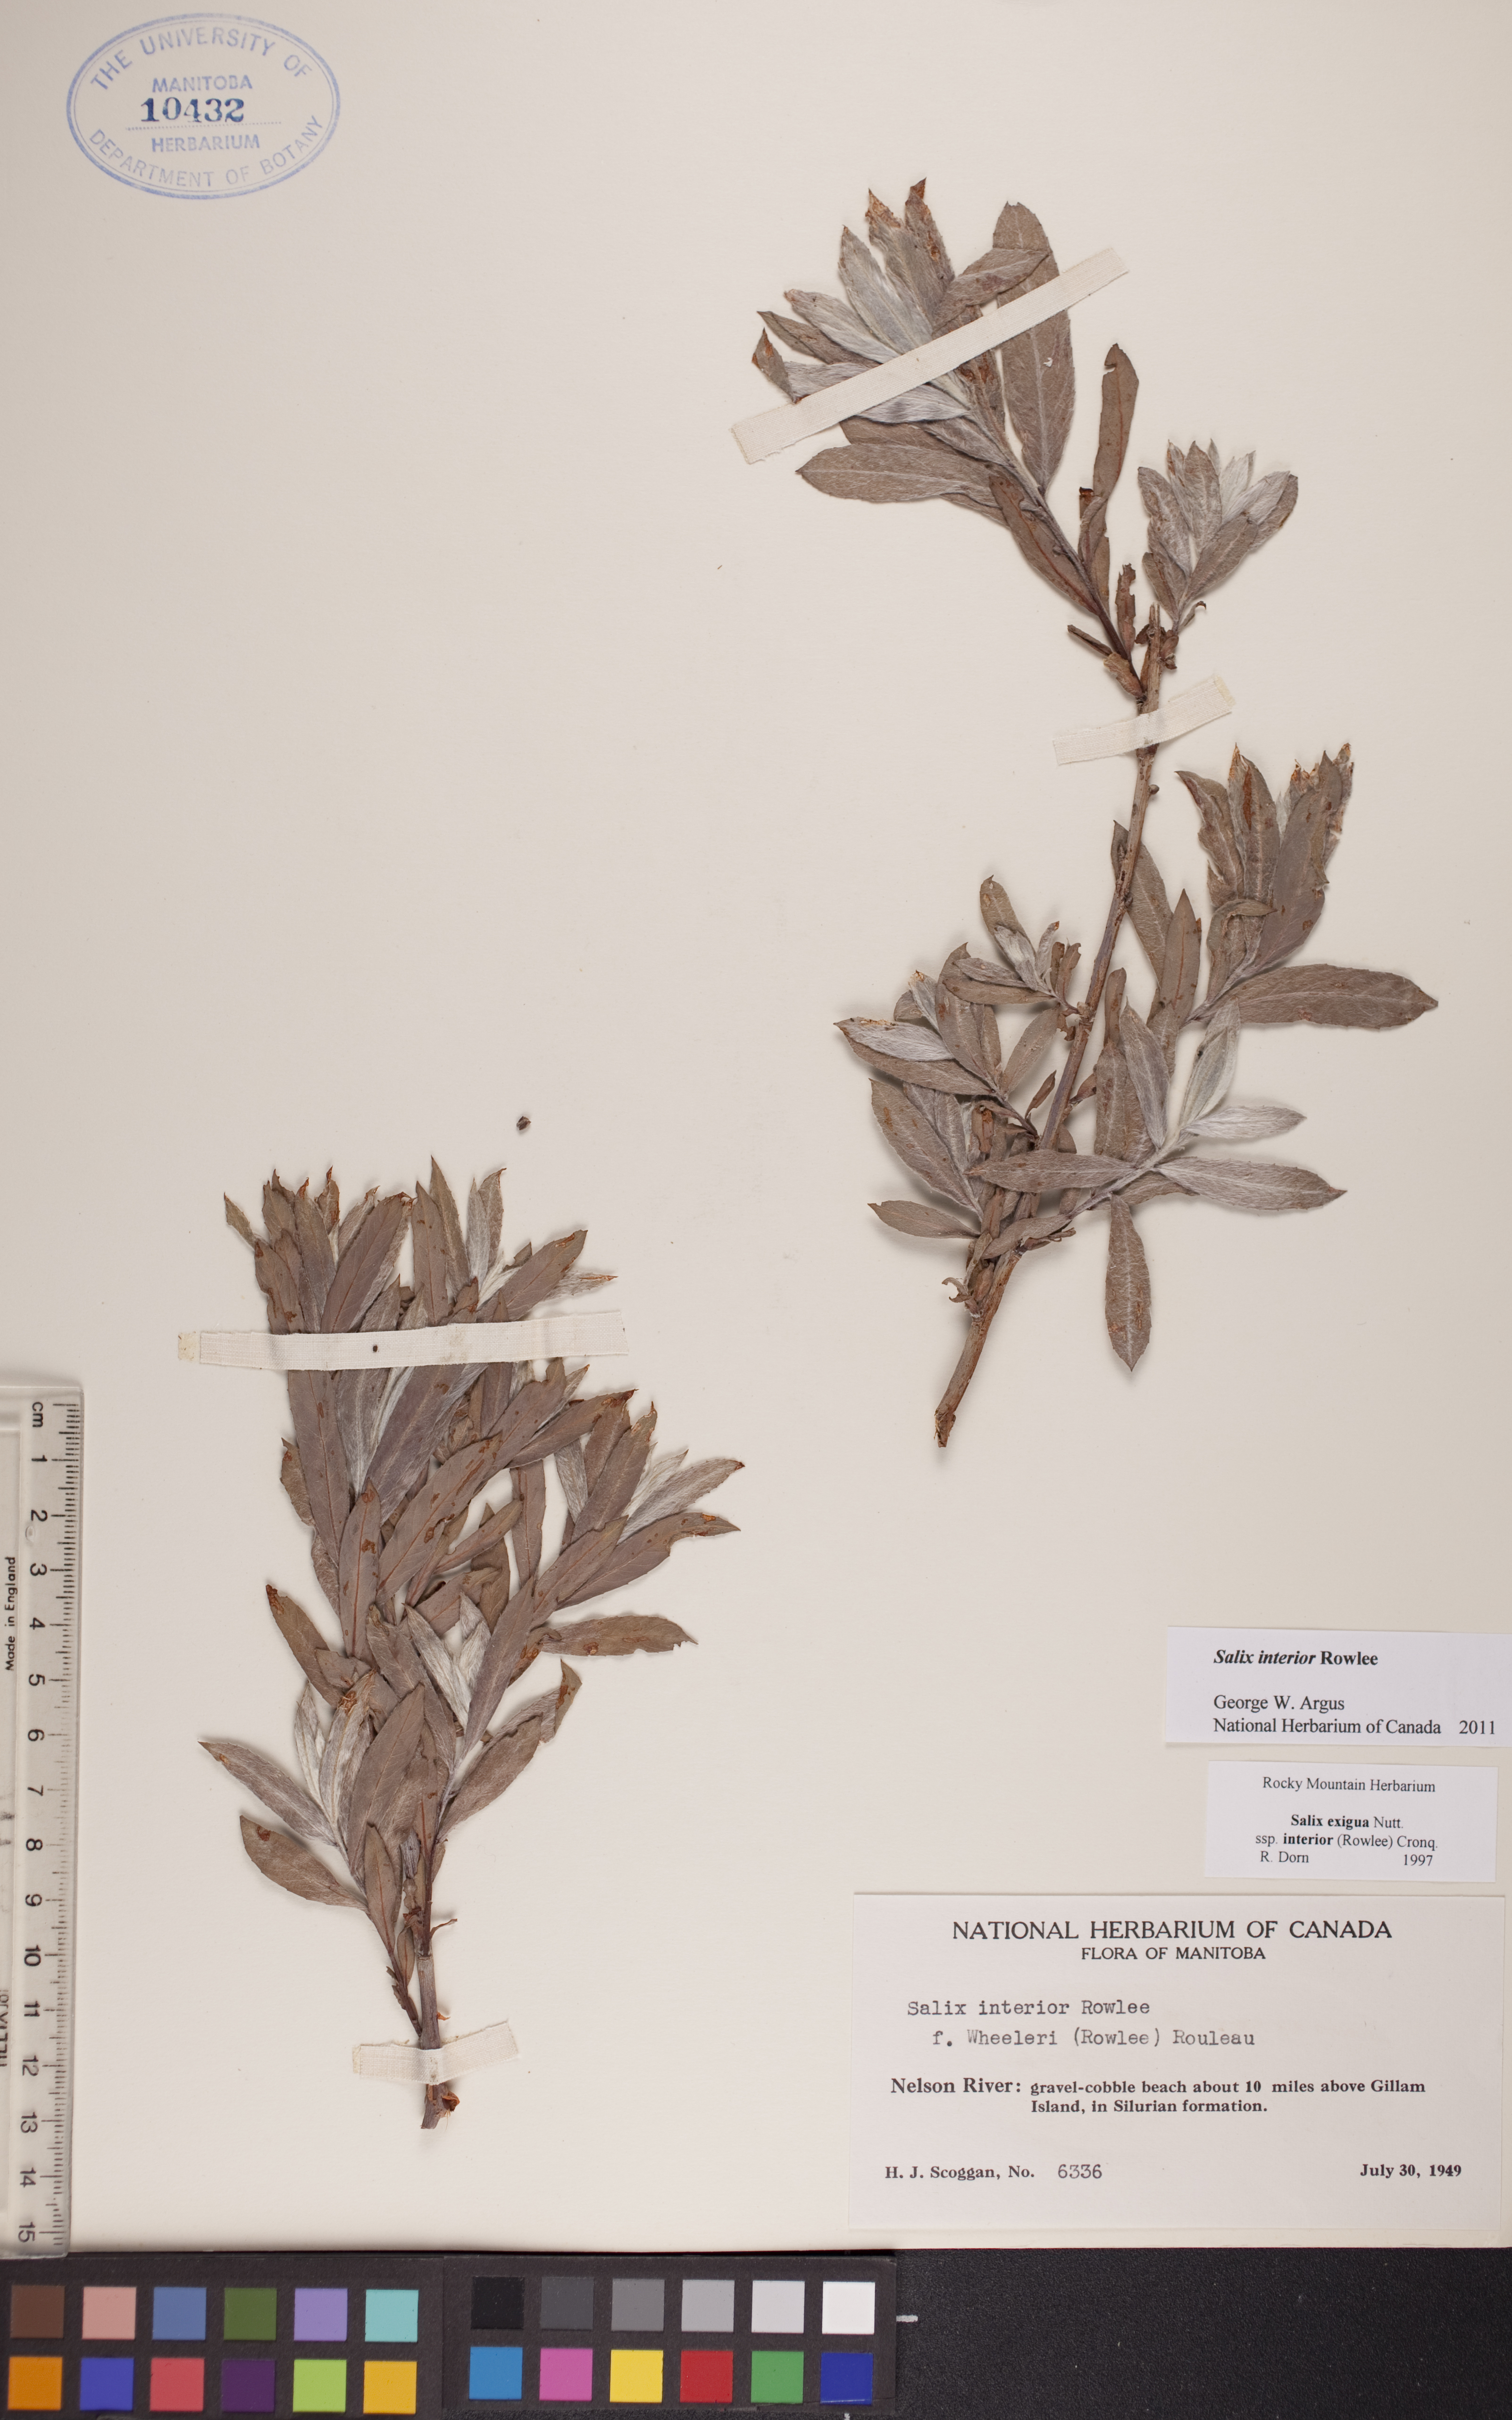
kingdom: Plantae
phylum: Tracheophyta
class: Magnoliopsida
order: Malpighiales
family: Salicaceae
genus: Salix
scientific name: Salix interior
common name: Sandbar willow
